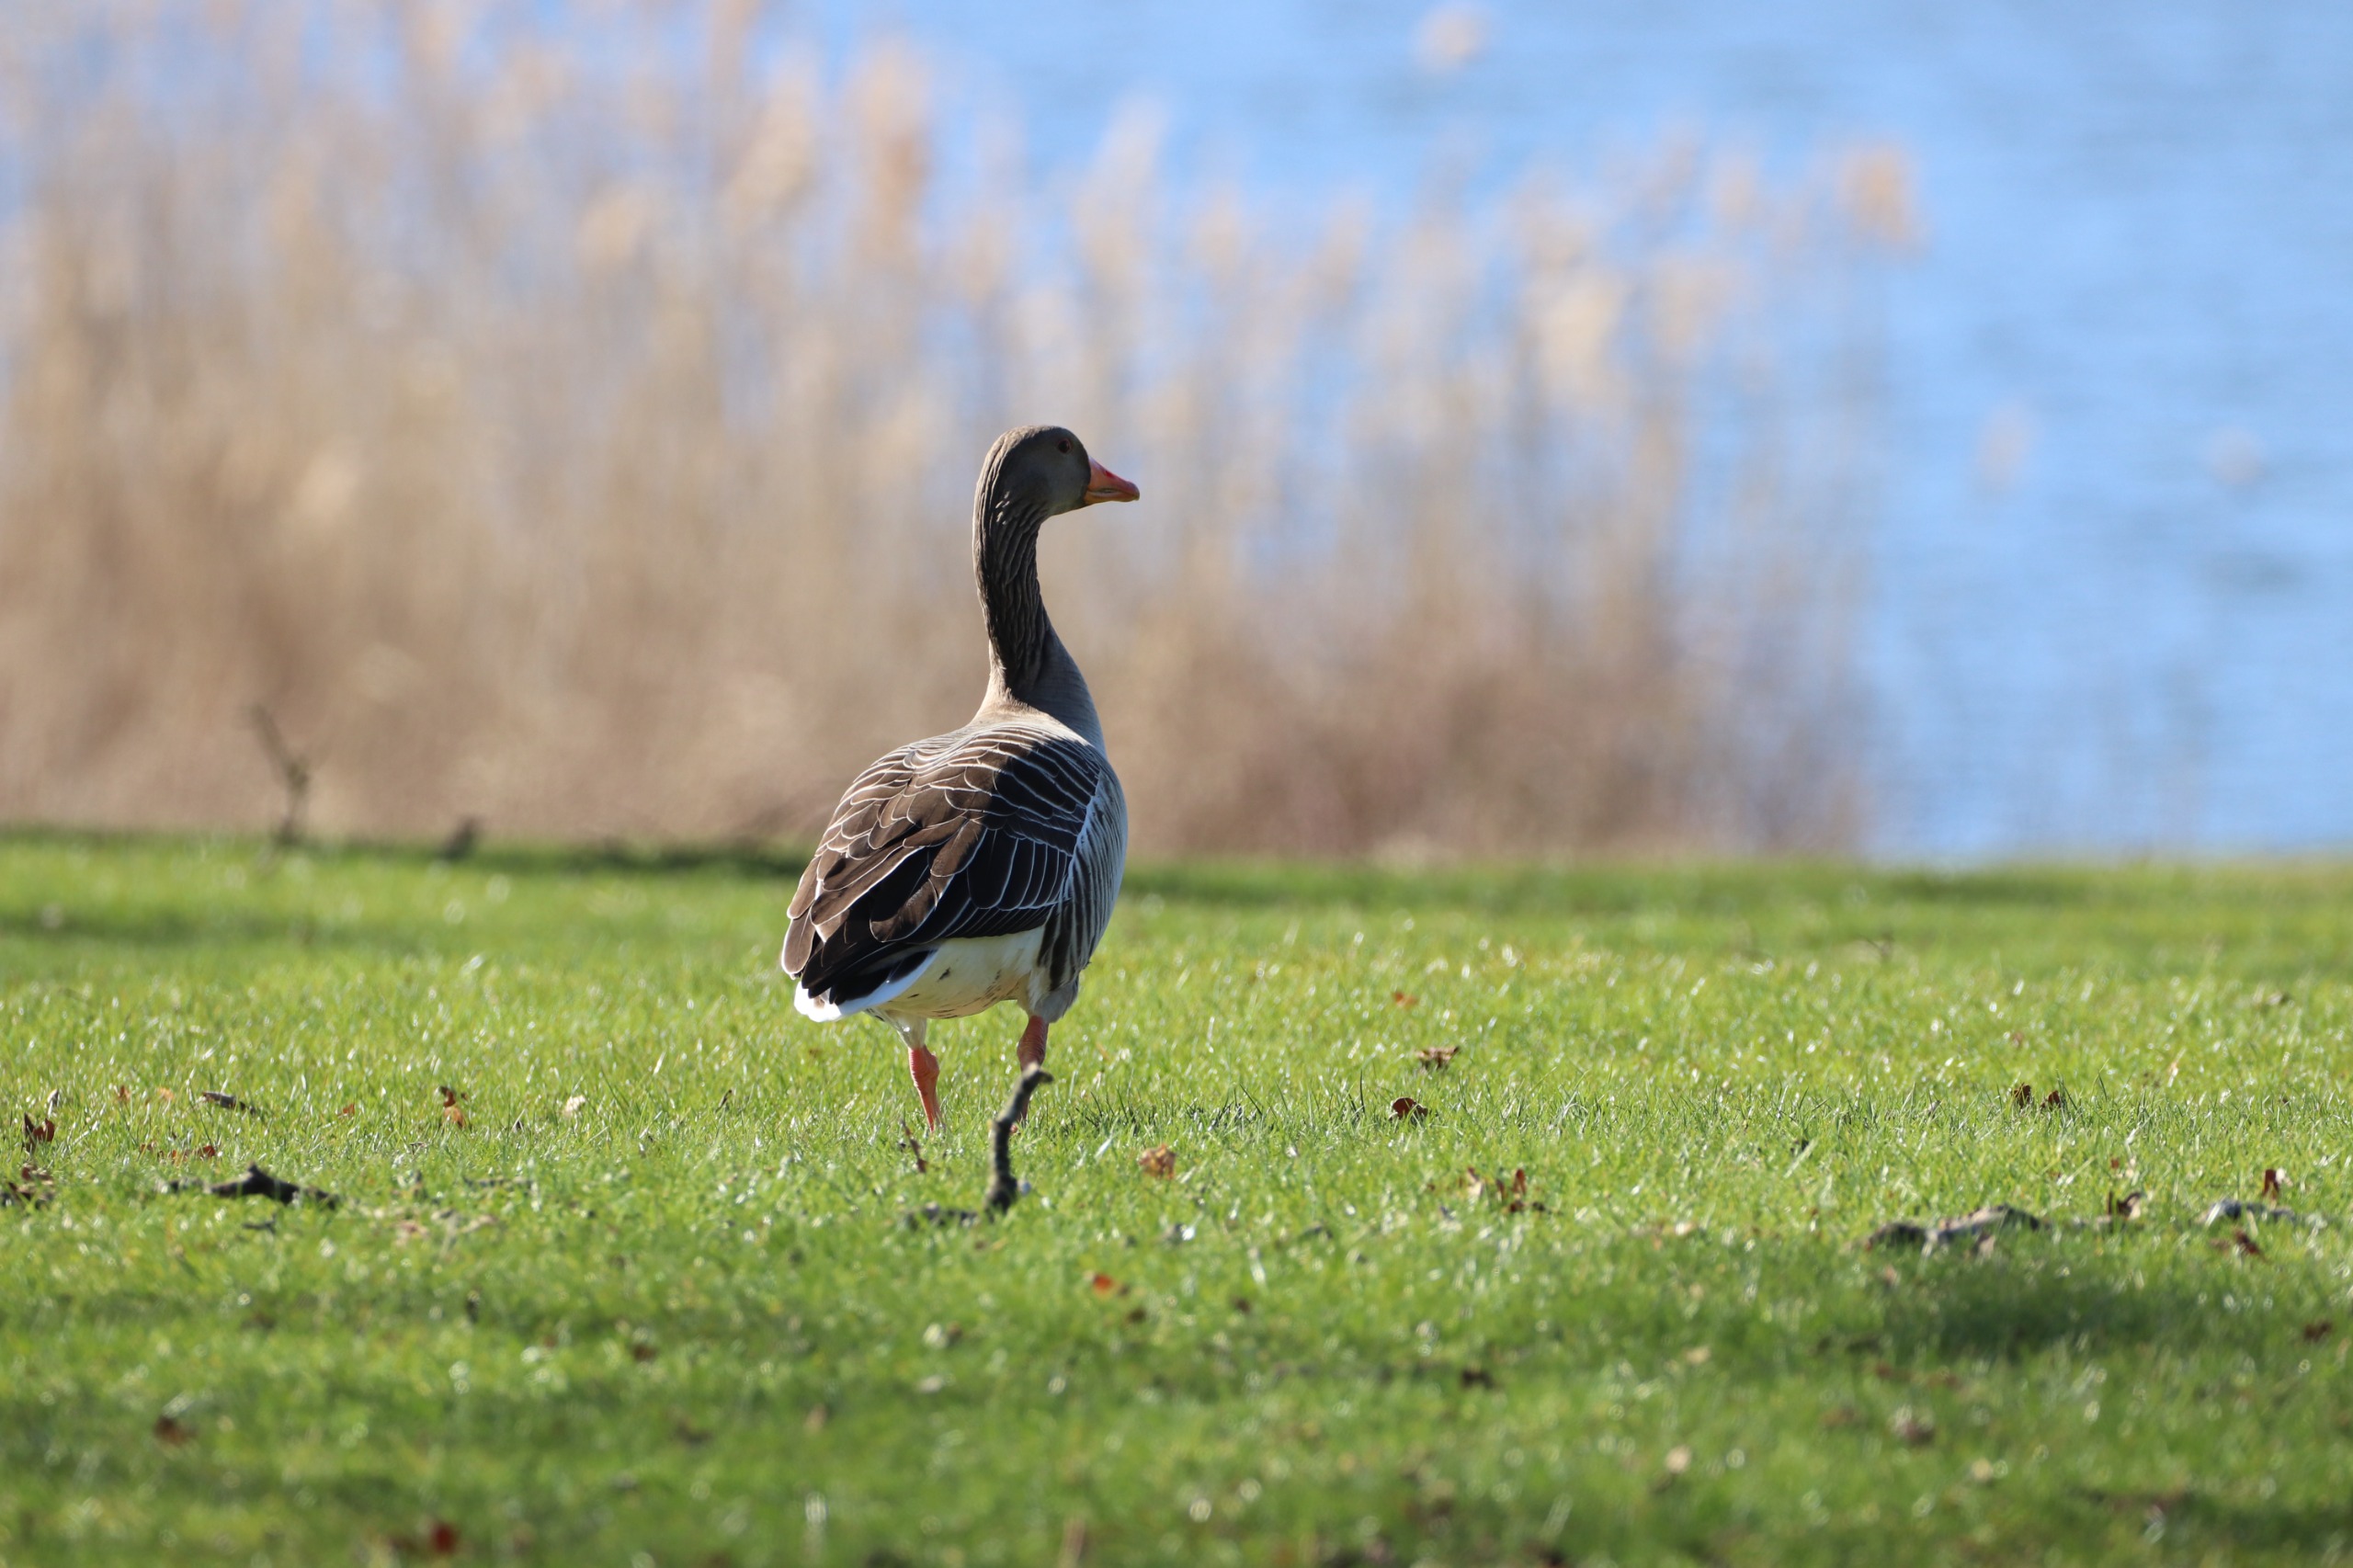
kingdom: Animalia
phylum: Chordata
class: Aves
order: Anseriformes
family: Anatidae
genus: Anser
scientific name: Anser anser
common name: Grågås
